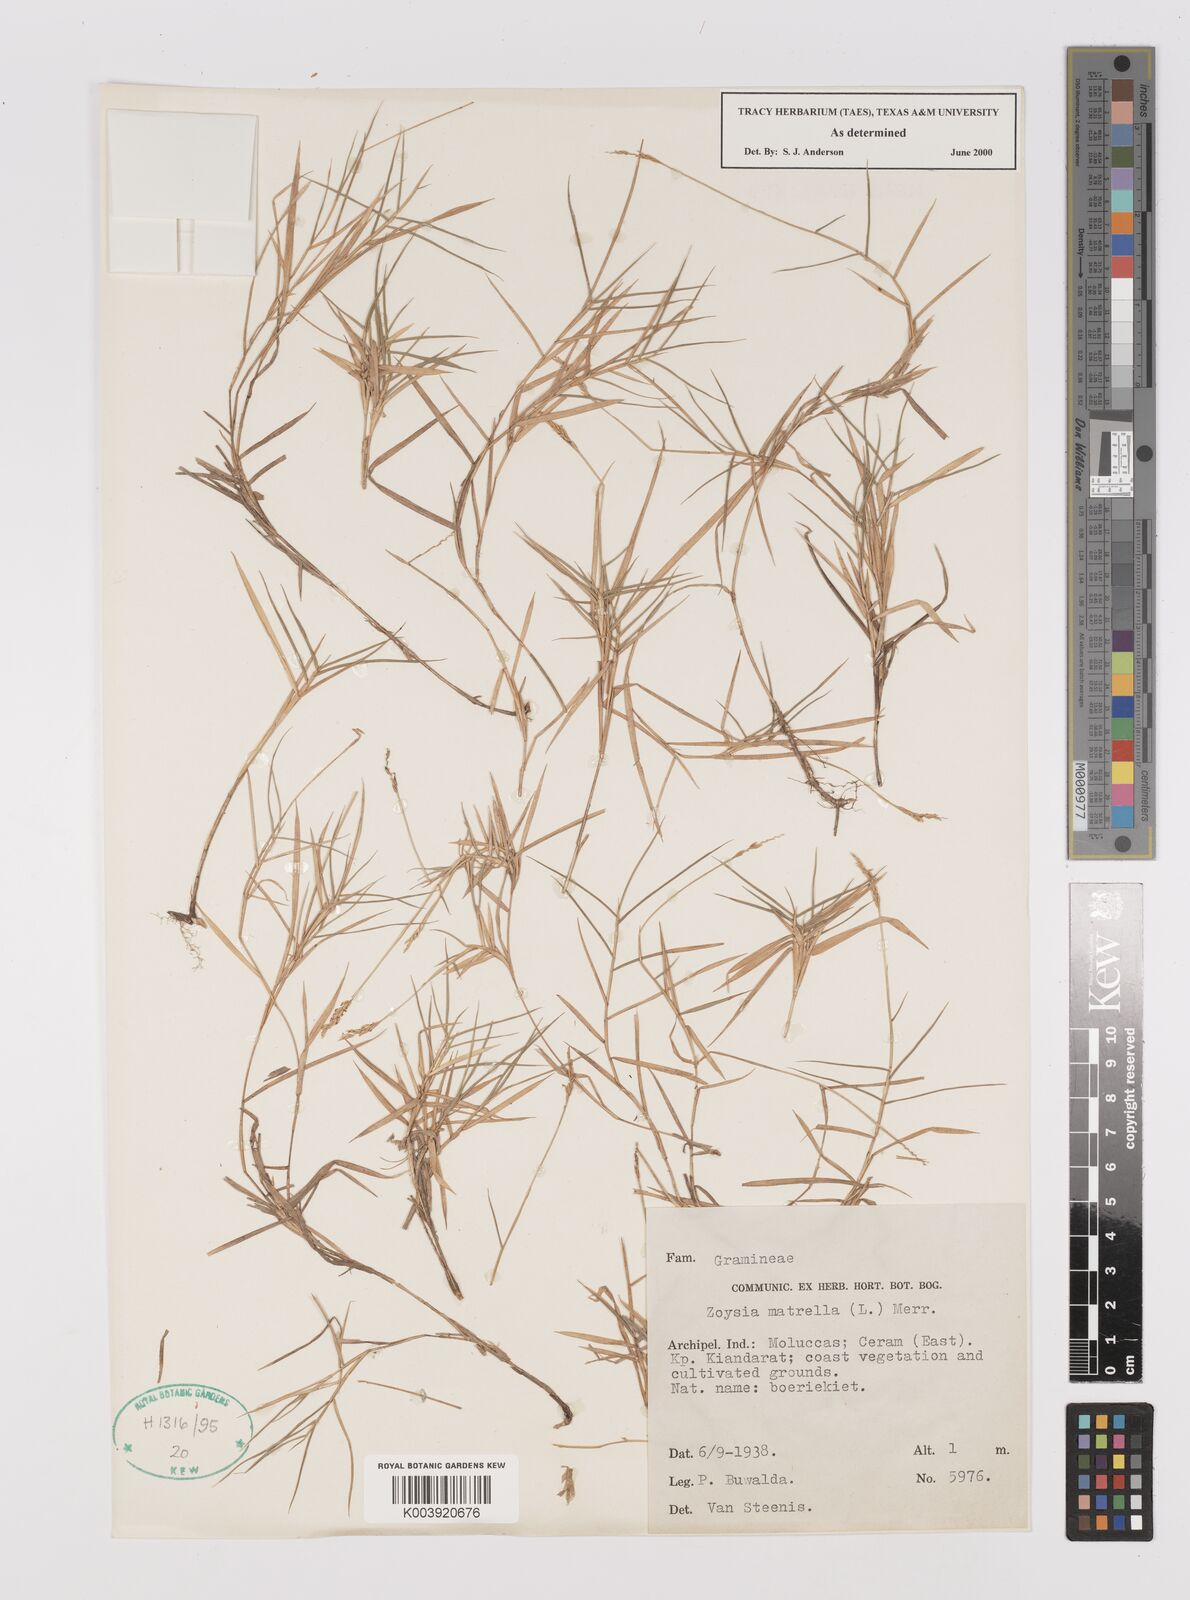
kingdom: Plantae
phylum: Tracheophyta
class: Liliopsida
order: Poales
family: Poaceae
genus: Zoysia
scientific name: Zoysia matrella
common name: Manila grass
